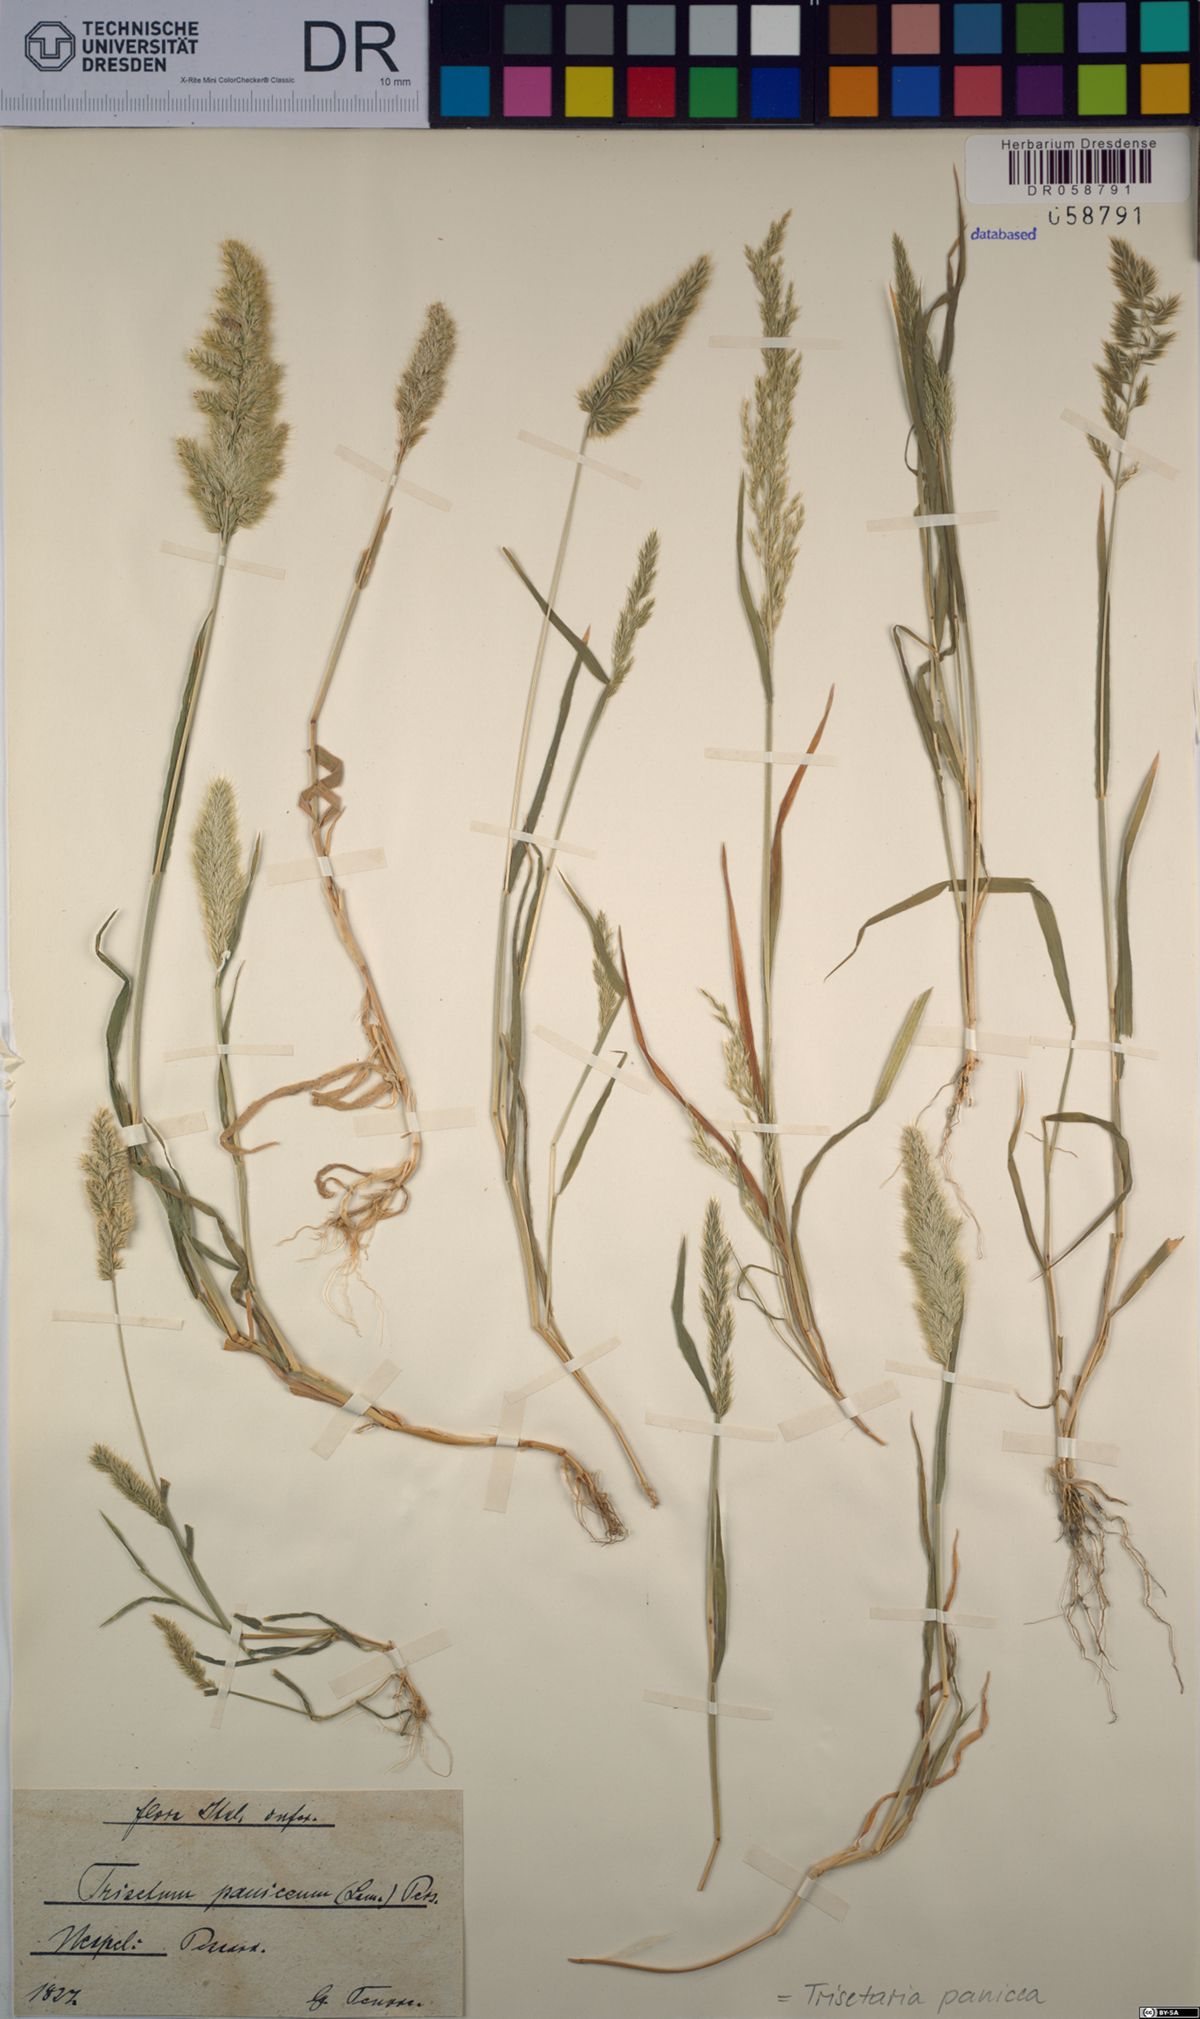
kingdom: Plantae
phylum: Tracheophyta
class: Liliopsida
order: Poales
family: Poaceae
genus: Trisetaria
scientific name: Trisetaria panicea
